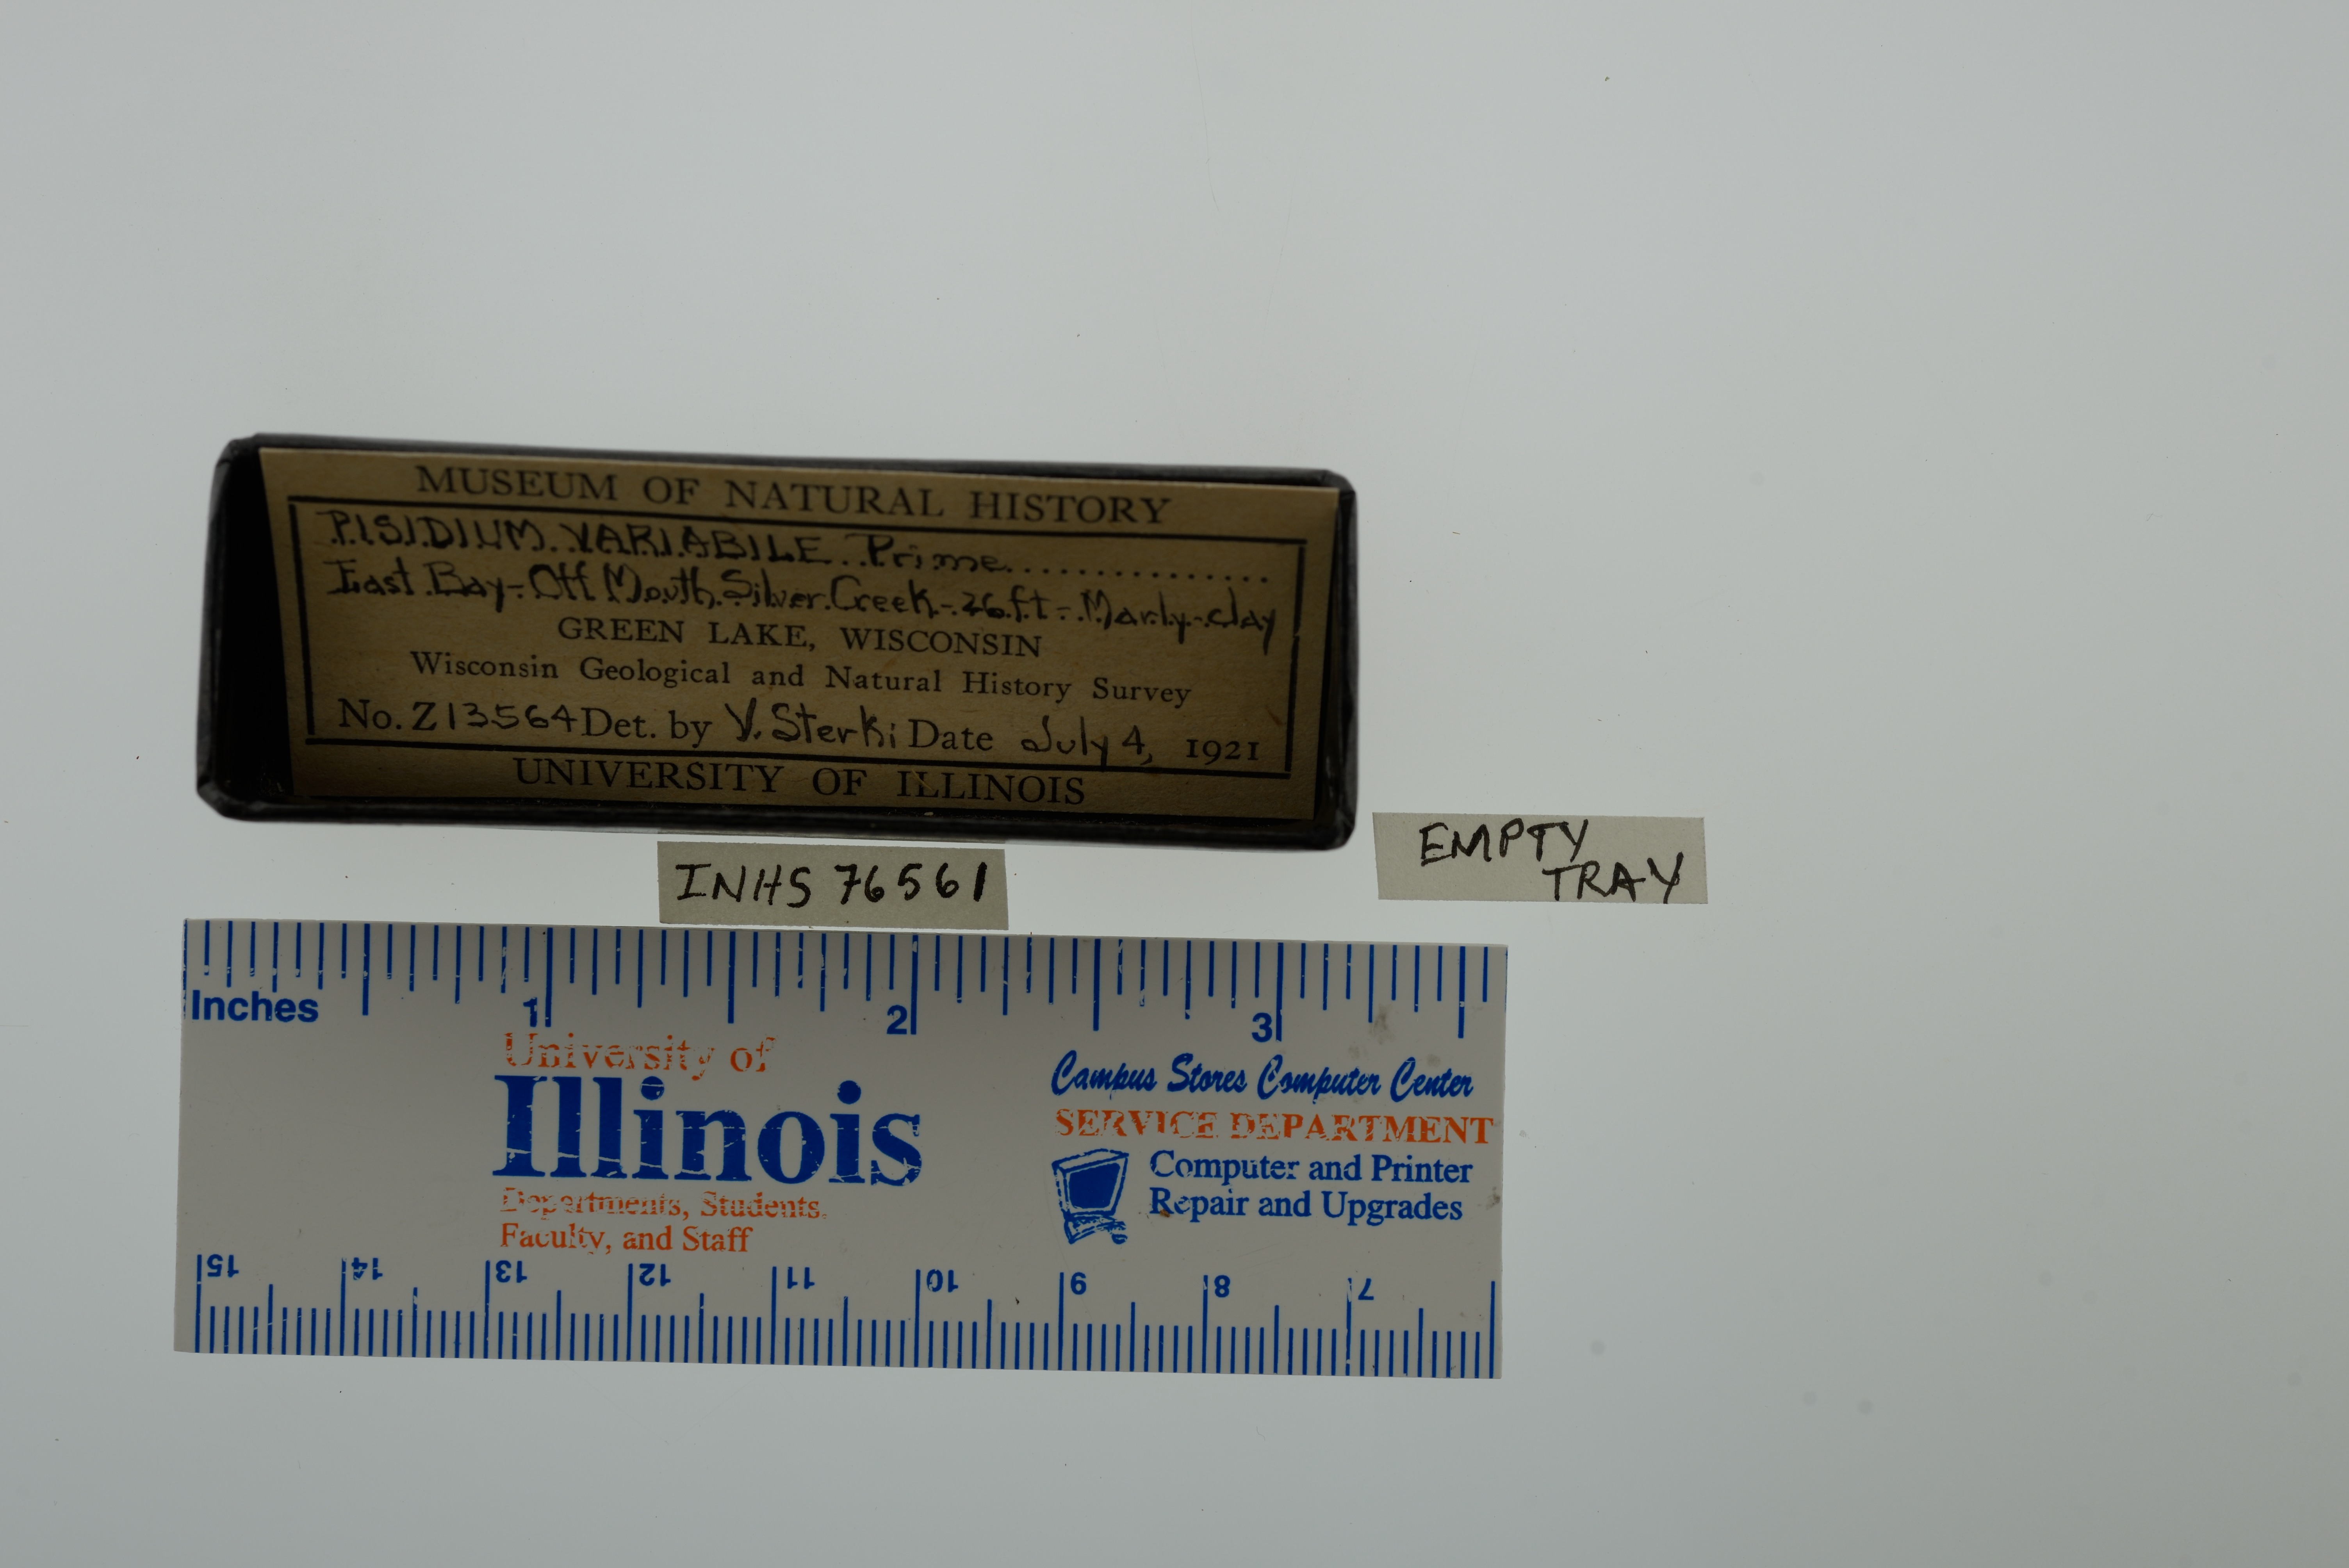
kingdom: Animalia
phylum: Mollusca
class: Bivalvia
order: Sphaeriida
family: Sphaeriidae
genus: Euglesa
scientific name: Euglesa variabilis
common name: Triangular peaclam
